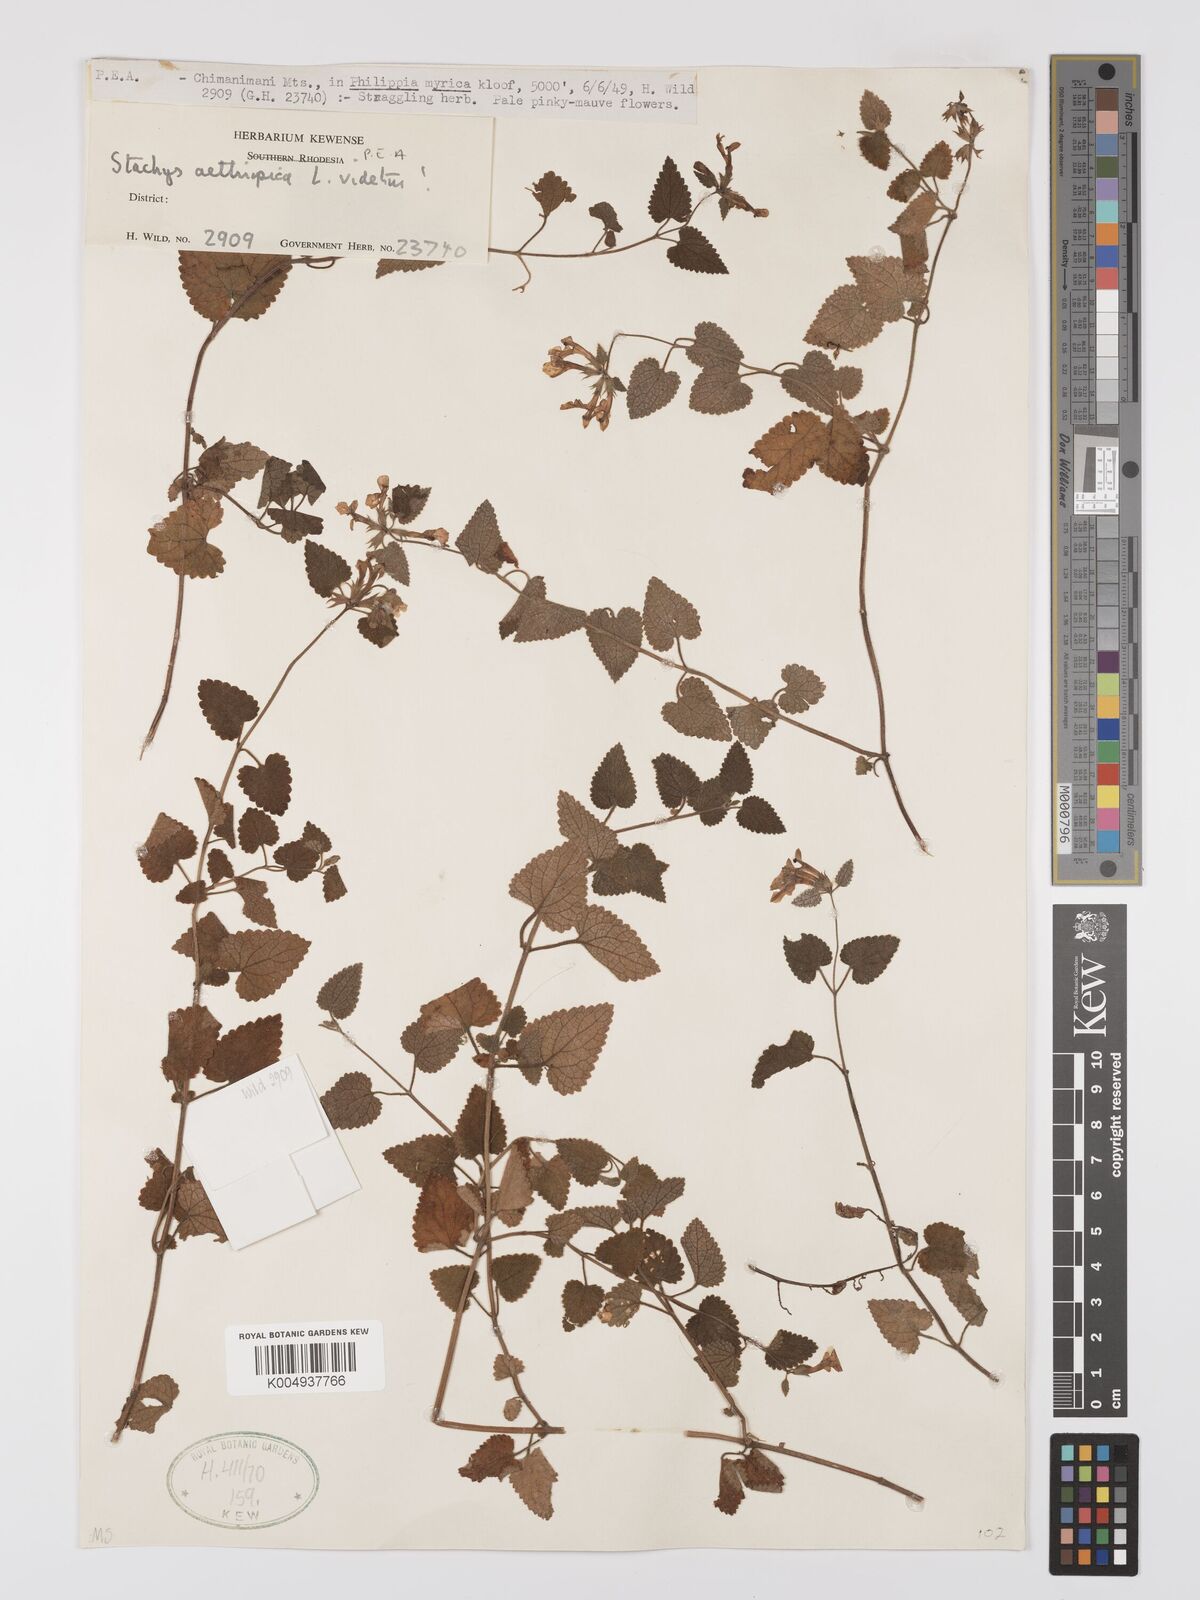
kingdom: Plantae
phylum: Tracheophyta
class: Magnoliopsida
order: Lamiales
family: Lamiaceae
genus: Stachys
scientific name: Stachys aethiopica
